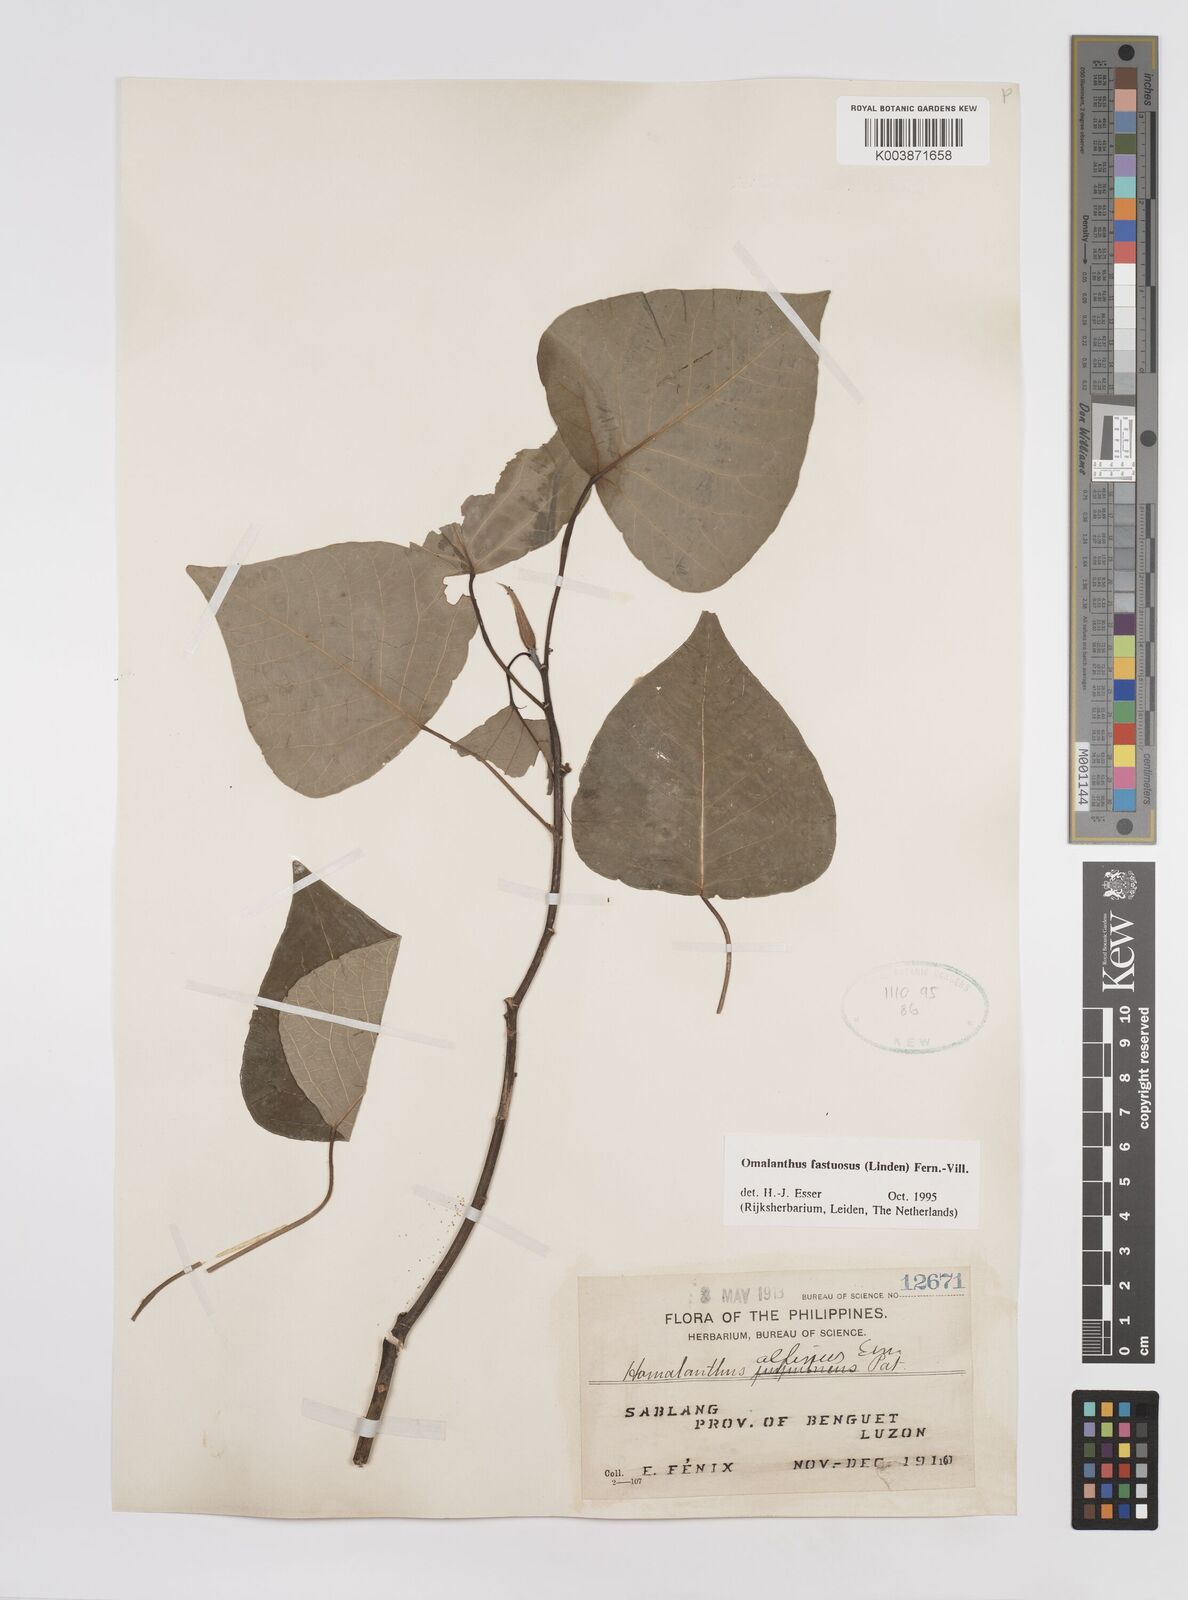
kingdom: Plantae
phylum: Tracheophyta
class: Magnoliopsida
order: Malpighiales
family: Euphorbiaceae
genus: Homalanthus
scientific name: Homalanthus fastuosus
